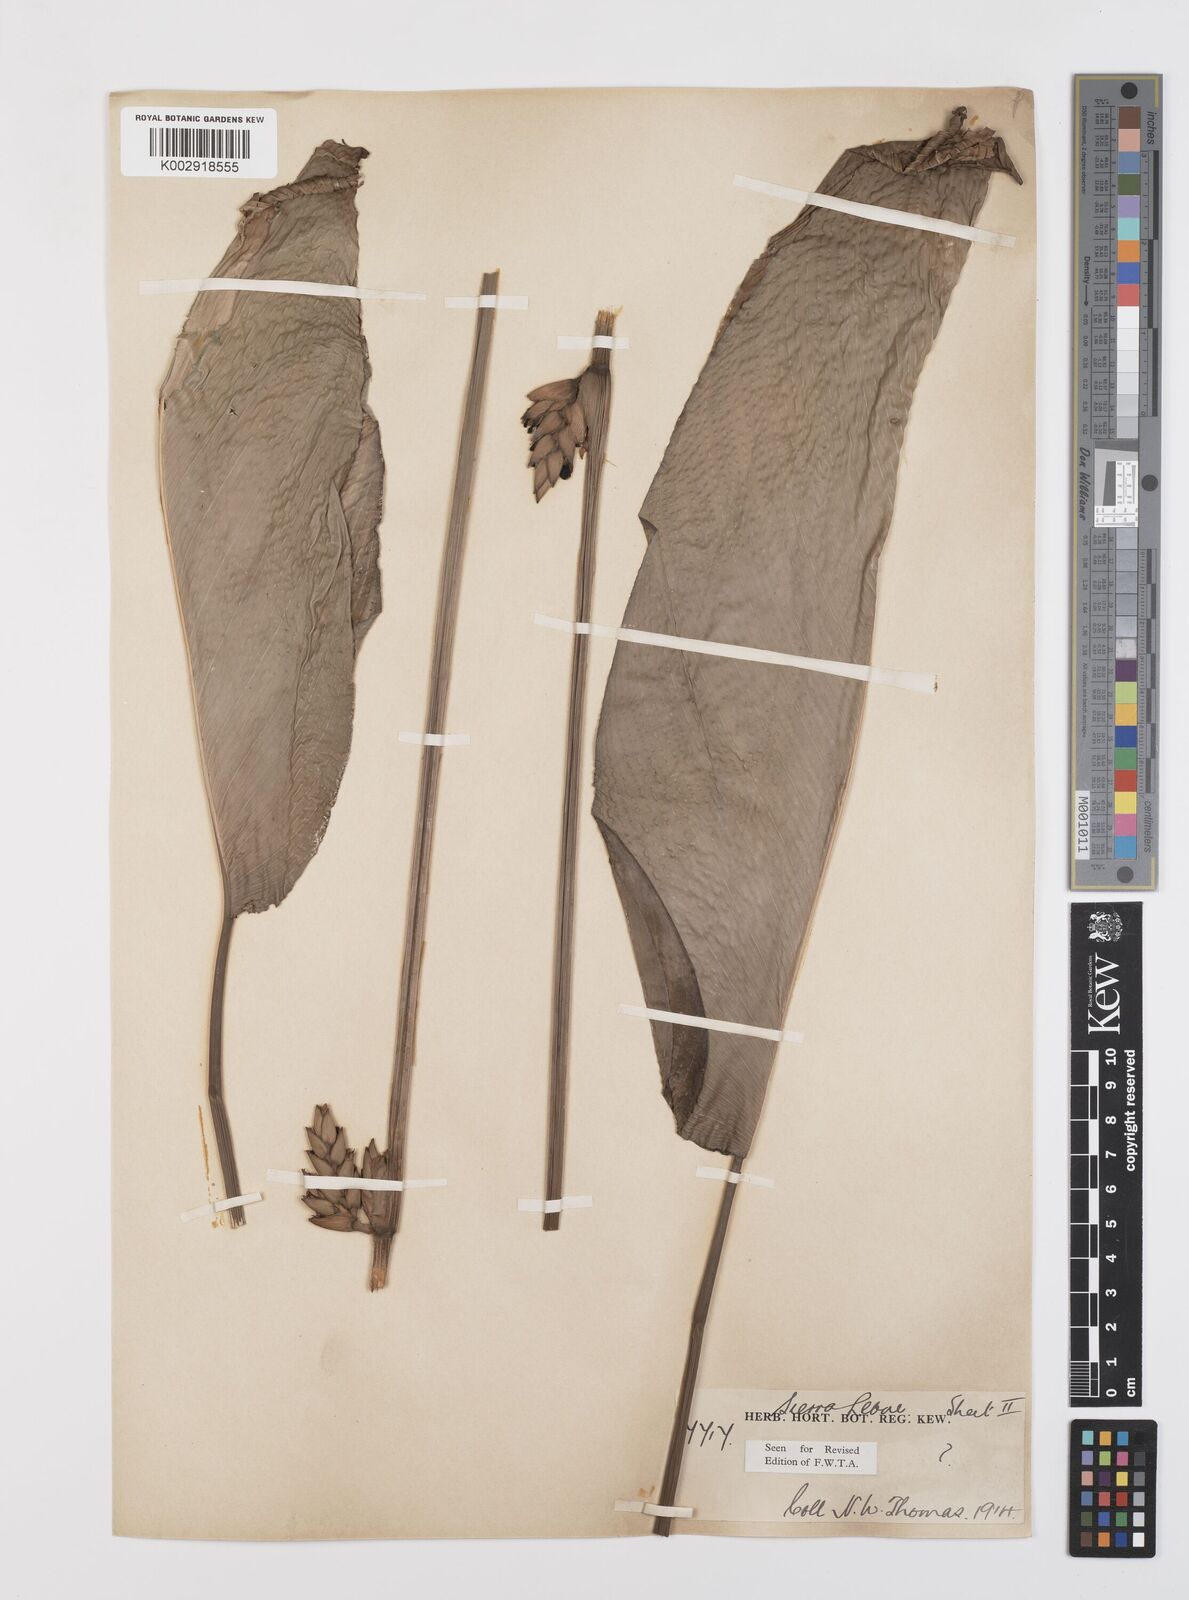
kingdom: Plantae
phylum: Tracheophyta
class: Liliopsida
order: Zingiberales
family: Marantaceae
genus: Sarcophrynium
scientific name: Sarcophrynium brachystachyum
